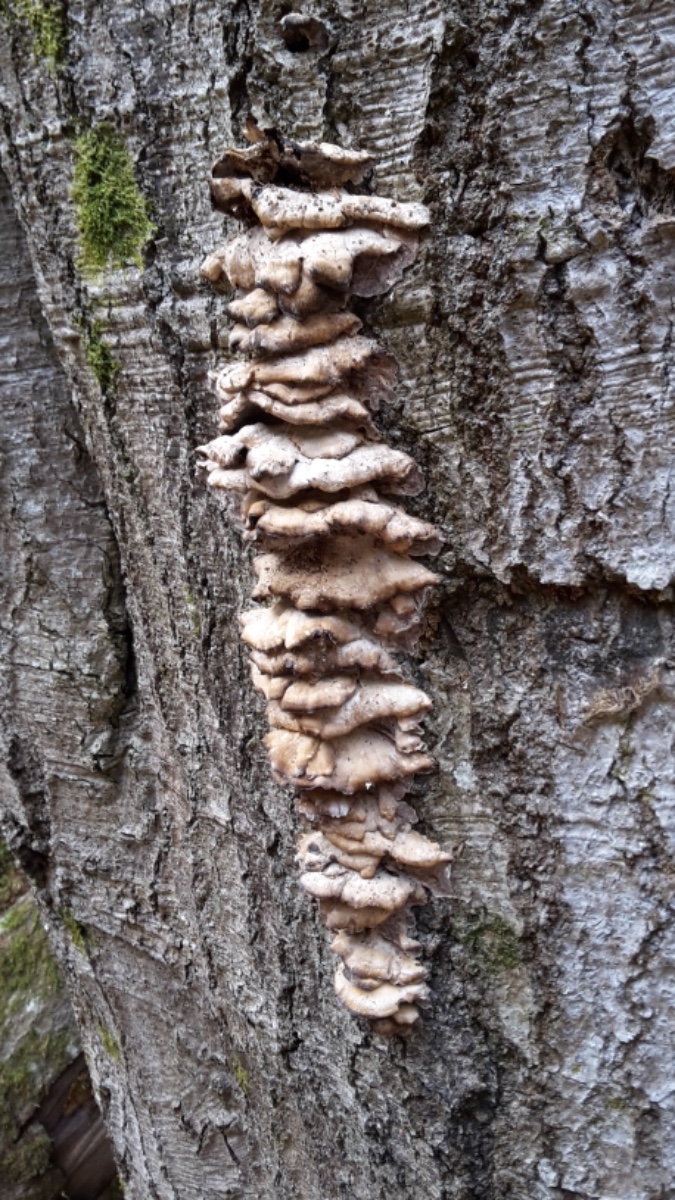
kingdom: Fungi
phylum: Basidiomycota
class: Agaricomycetes
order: Polyporales
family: Phanerochaetaceae
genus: Bjerkandera
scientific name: Bjerkandera adusta
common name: sveden sodporesvamp
